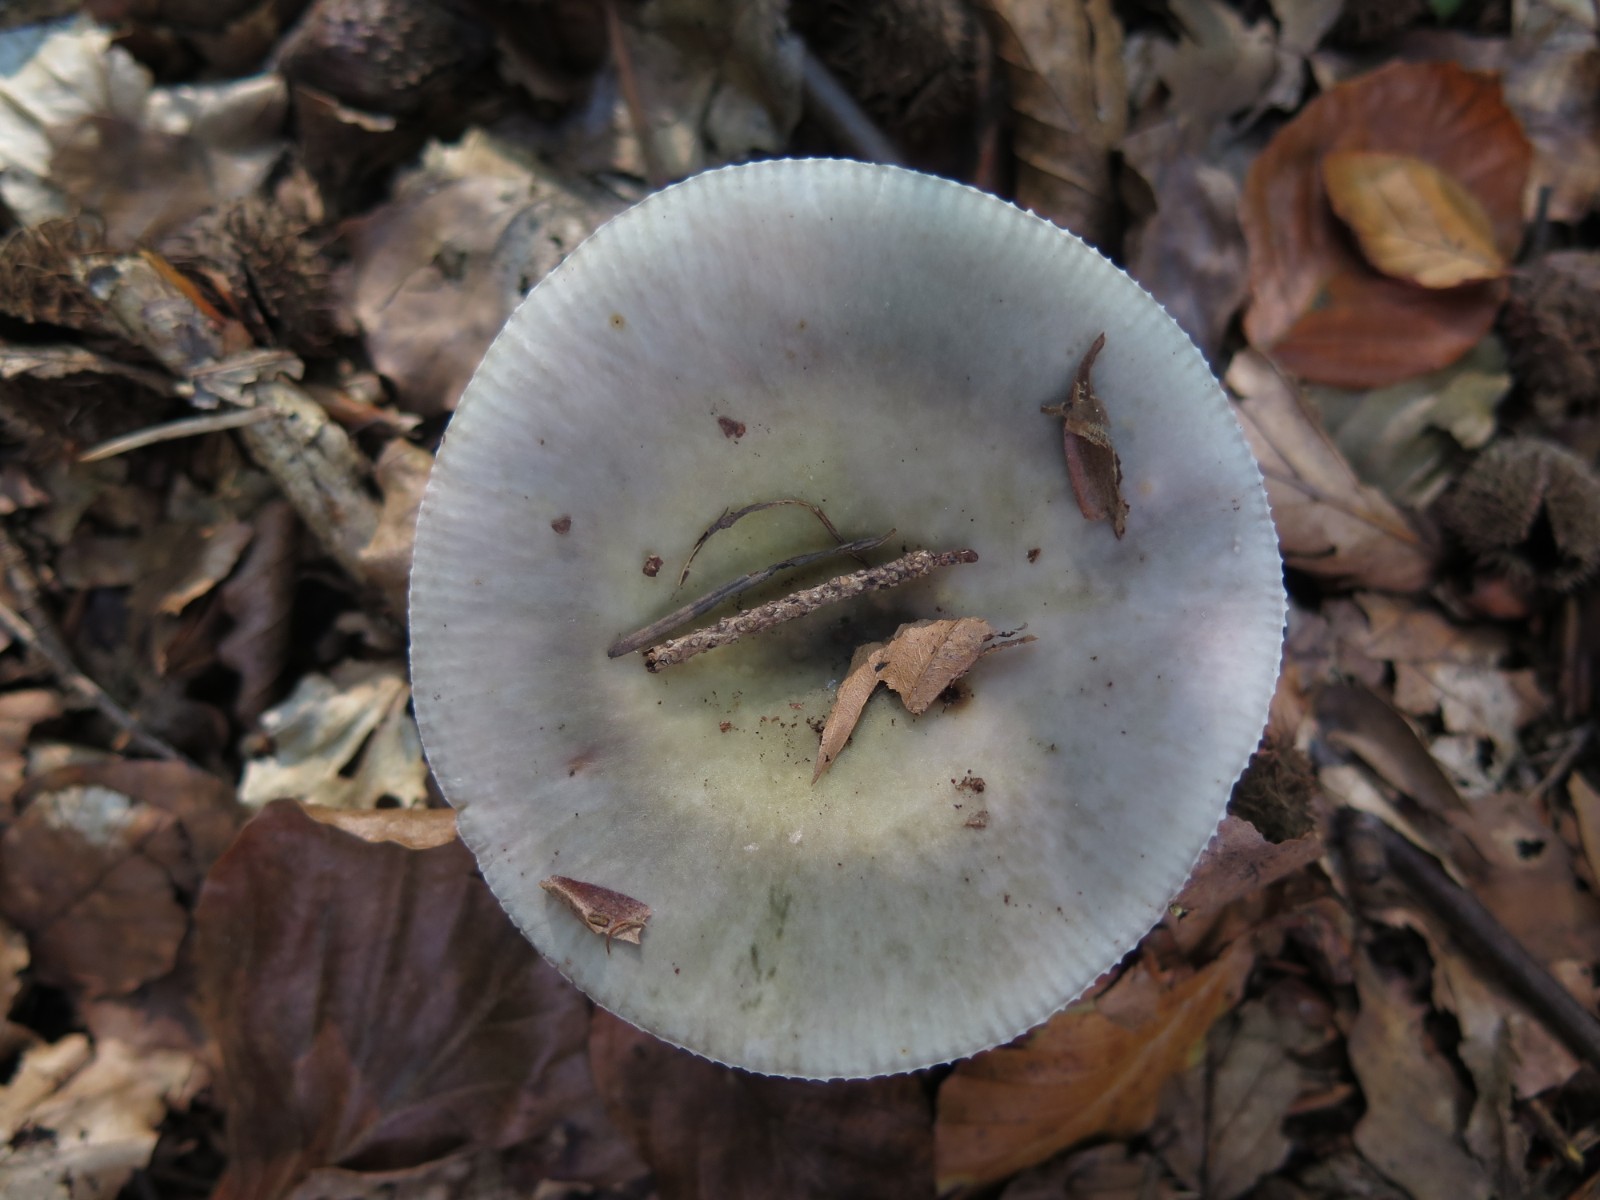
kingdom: Fungi
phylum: Basidiomycota
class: Agaricomycetes
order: Russulales
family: Russulaceae
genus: Russula
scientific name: Russula
